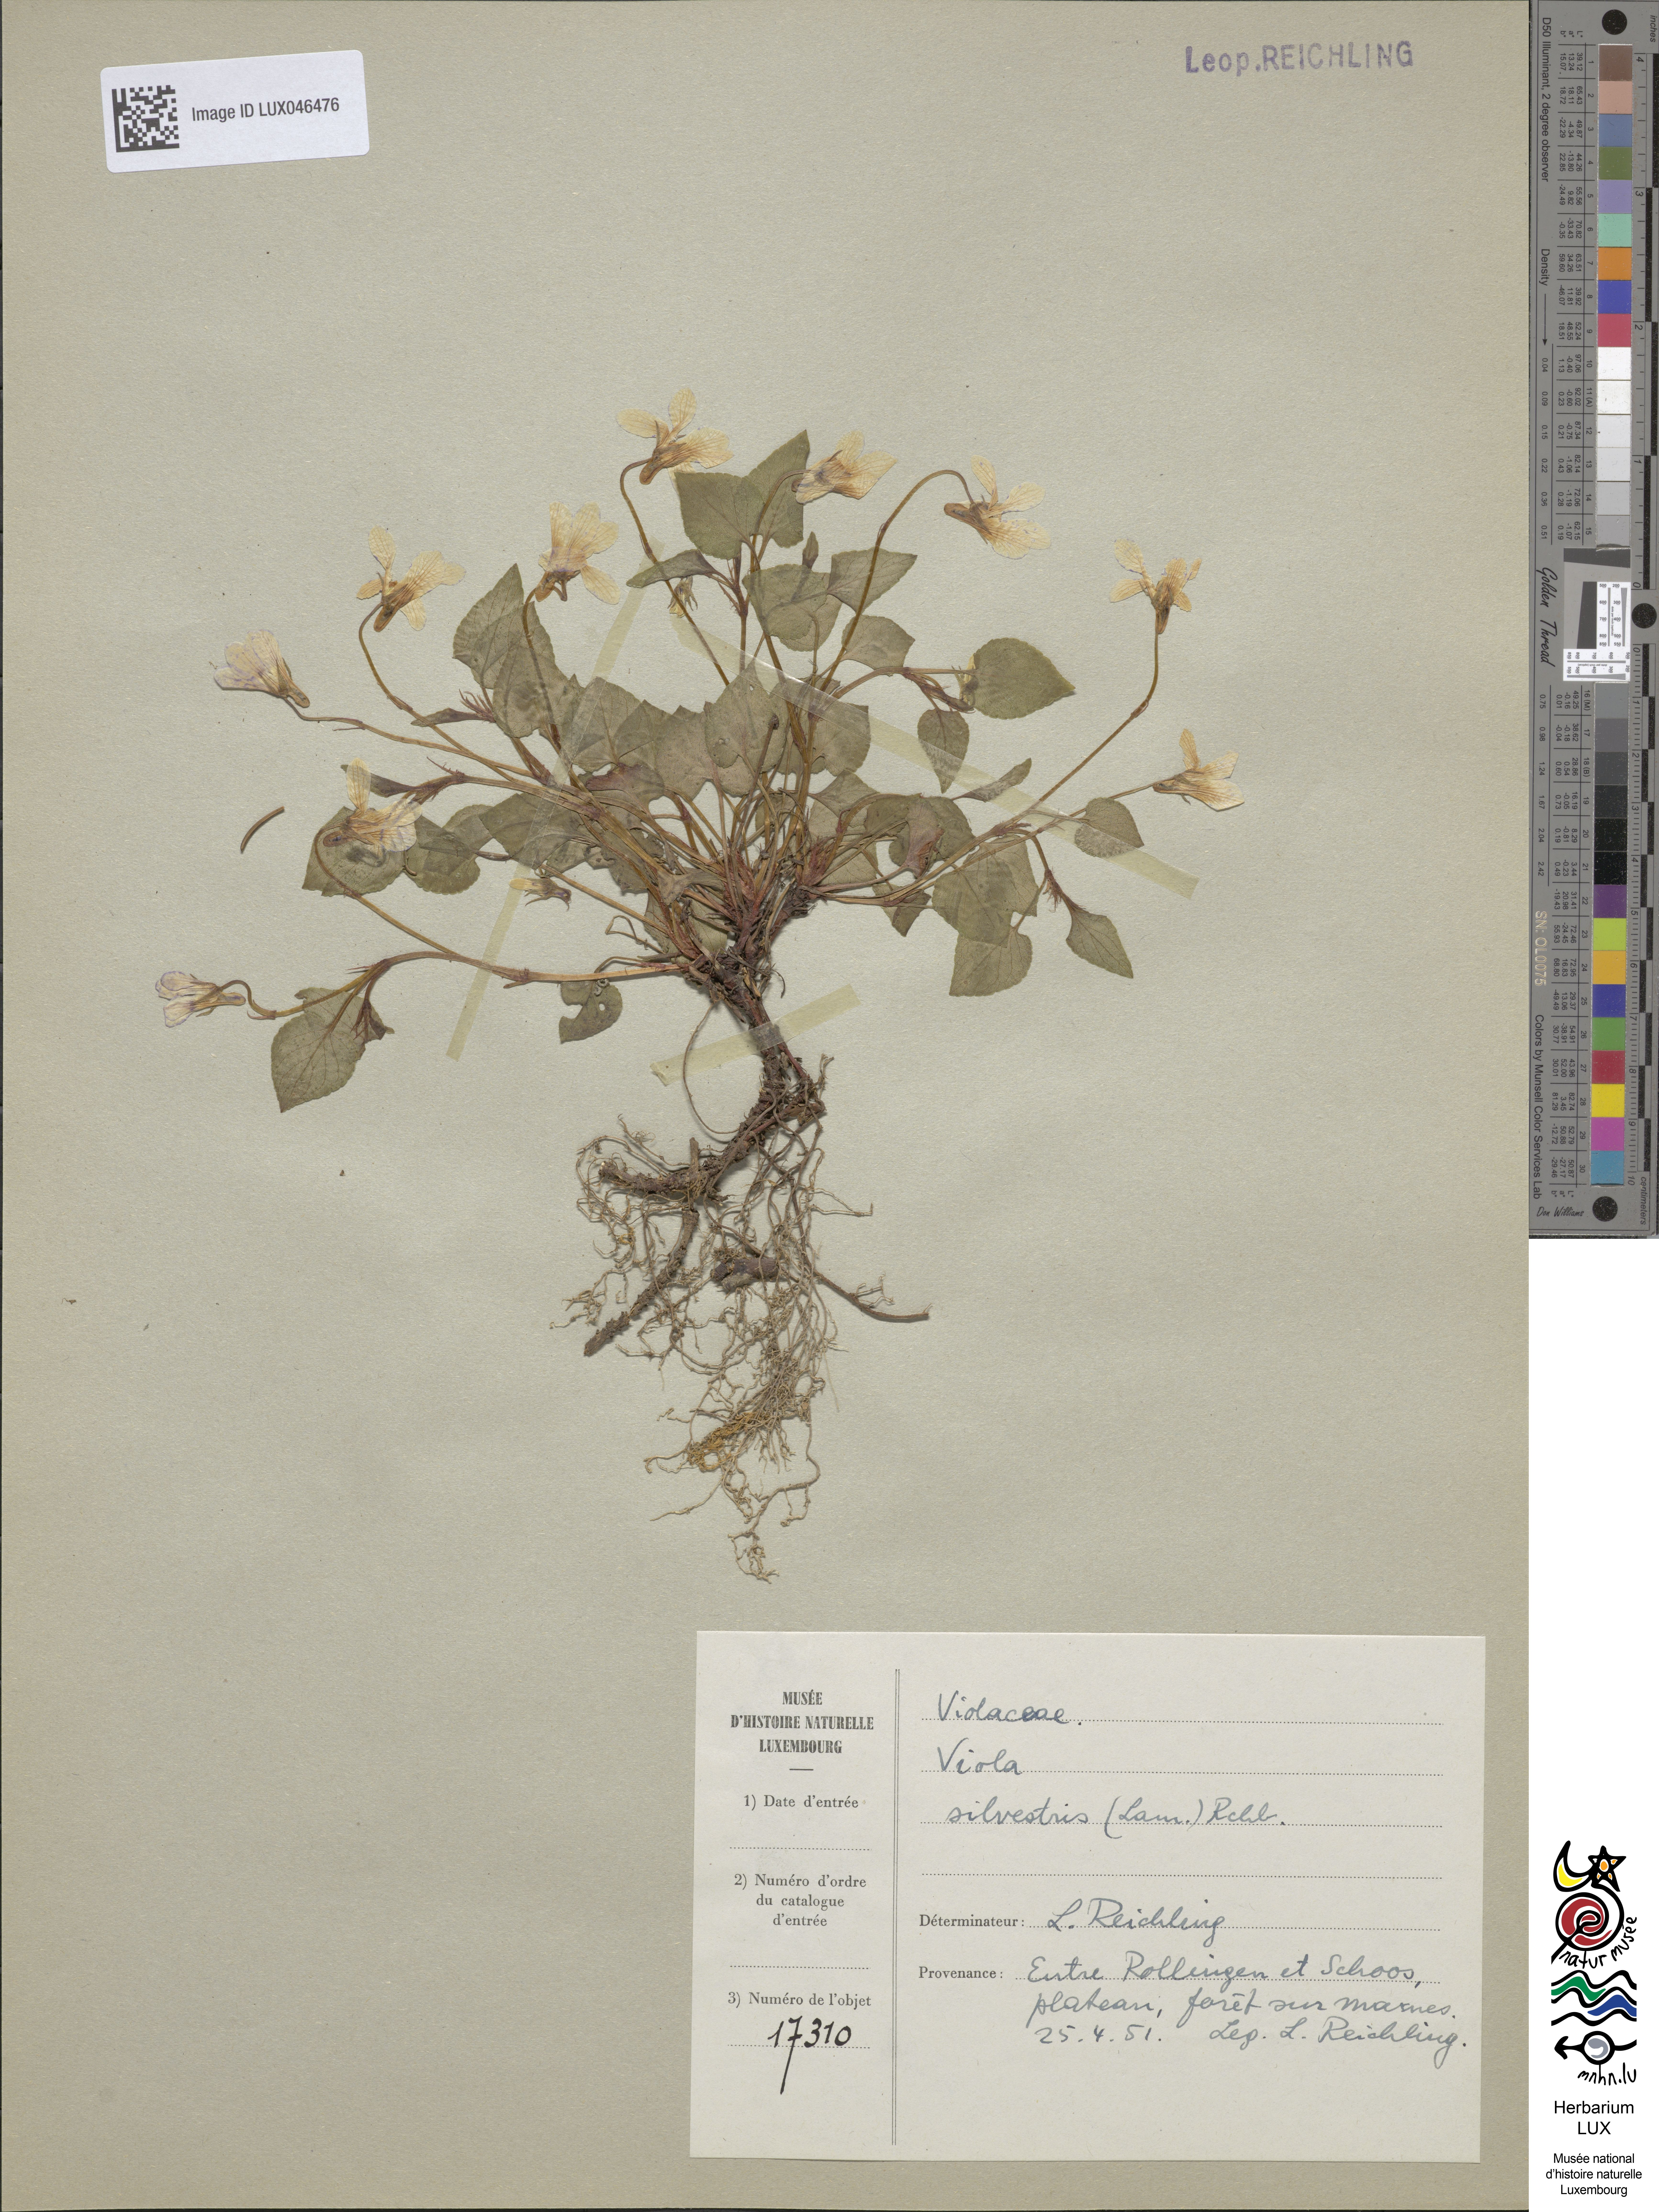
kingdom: Plantae
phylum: Tracheophyta
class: Magnoliopsida
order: Malpighiales
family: Violaceae
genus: Viola
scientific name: Viola reichenbachiana
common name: Early dog-violet
